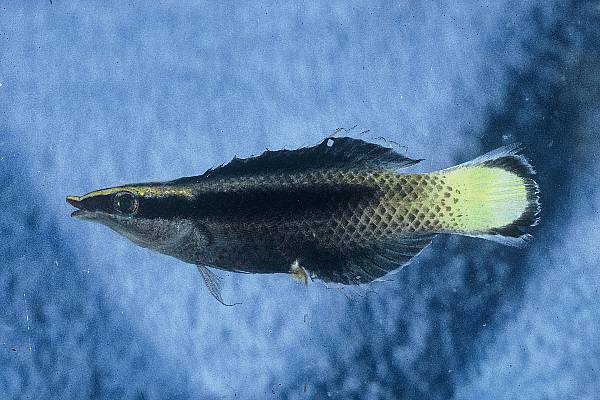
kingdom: Animalia
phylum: Chordata
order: Perciformes
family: Labridae
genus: Labroides
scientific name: Labroides bicolor
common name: Bicolor cleaner wrasse
